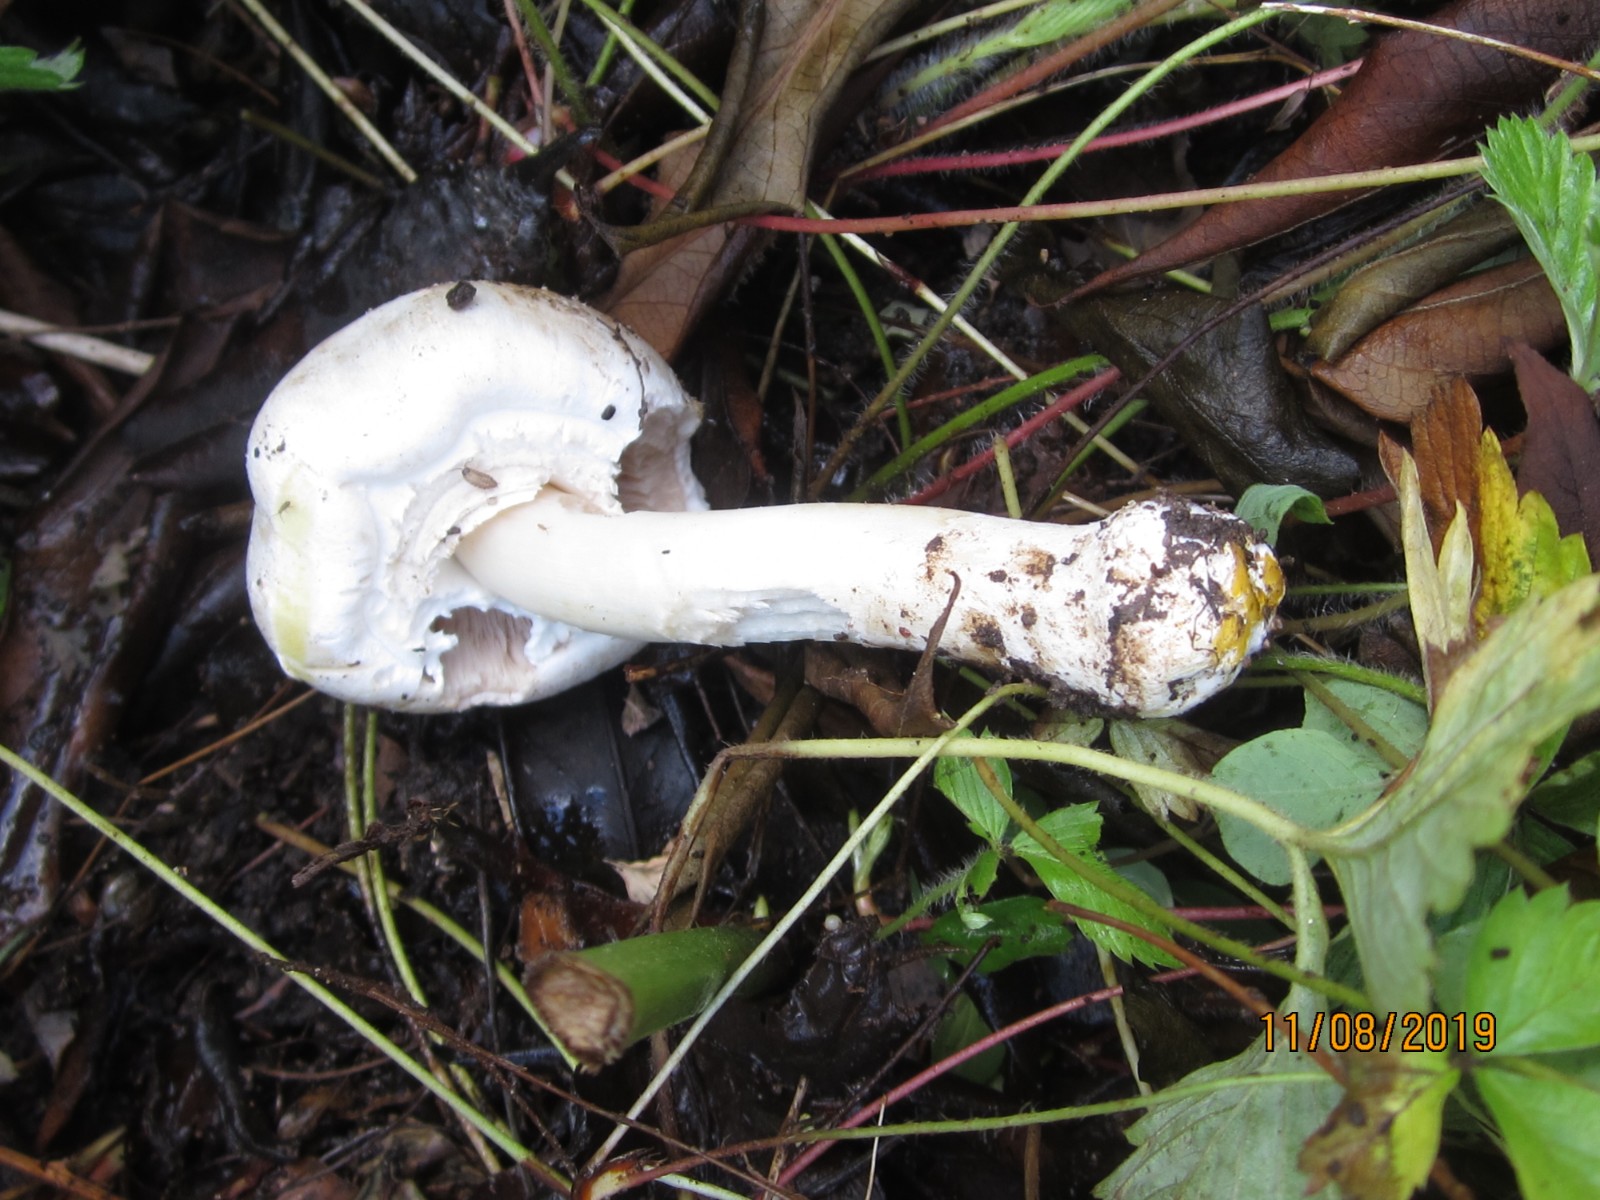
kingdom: Fungi
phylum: Basidiomycota
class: Agaricomycetes
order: Agaricales
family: Agaricaceae
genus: Agaricus
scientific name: Agaricus xanthodermus
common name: karbol-champignon
